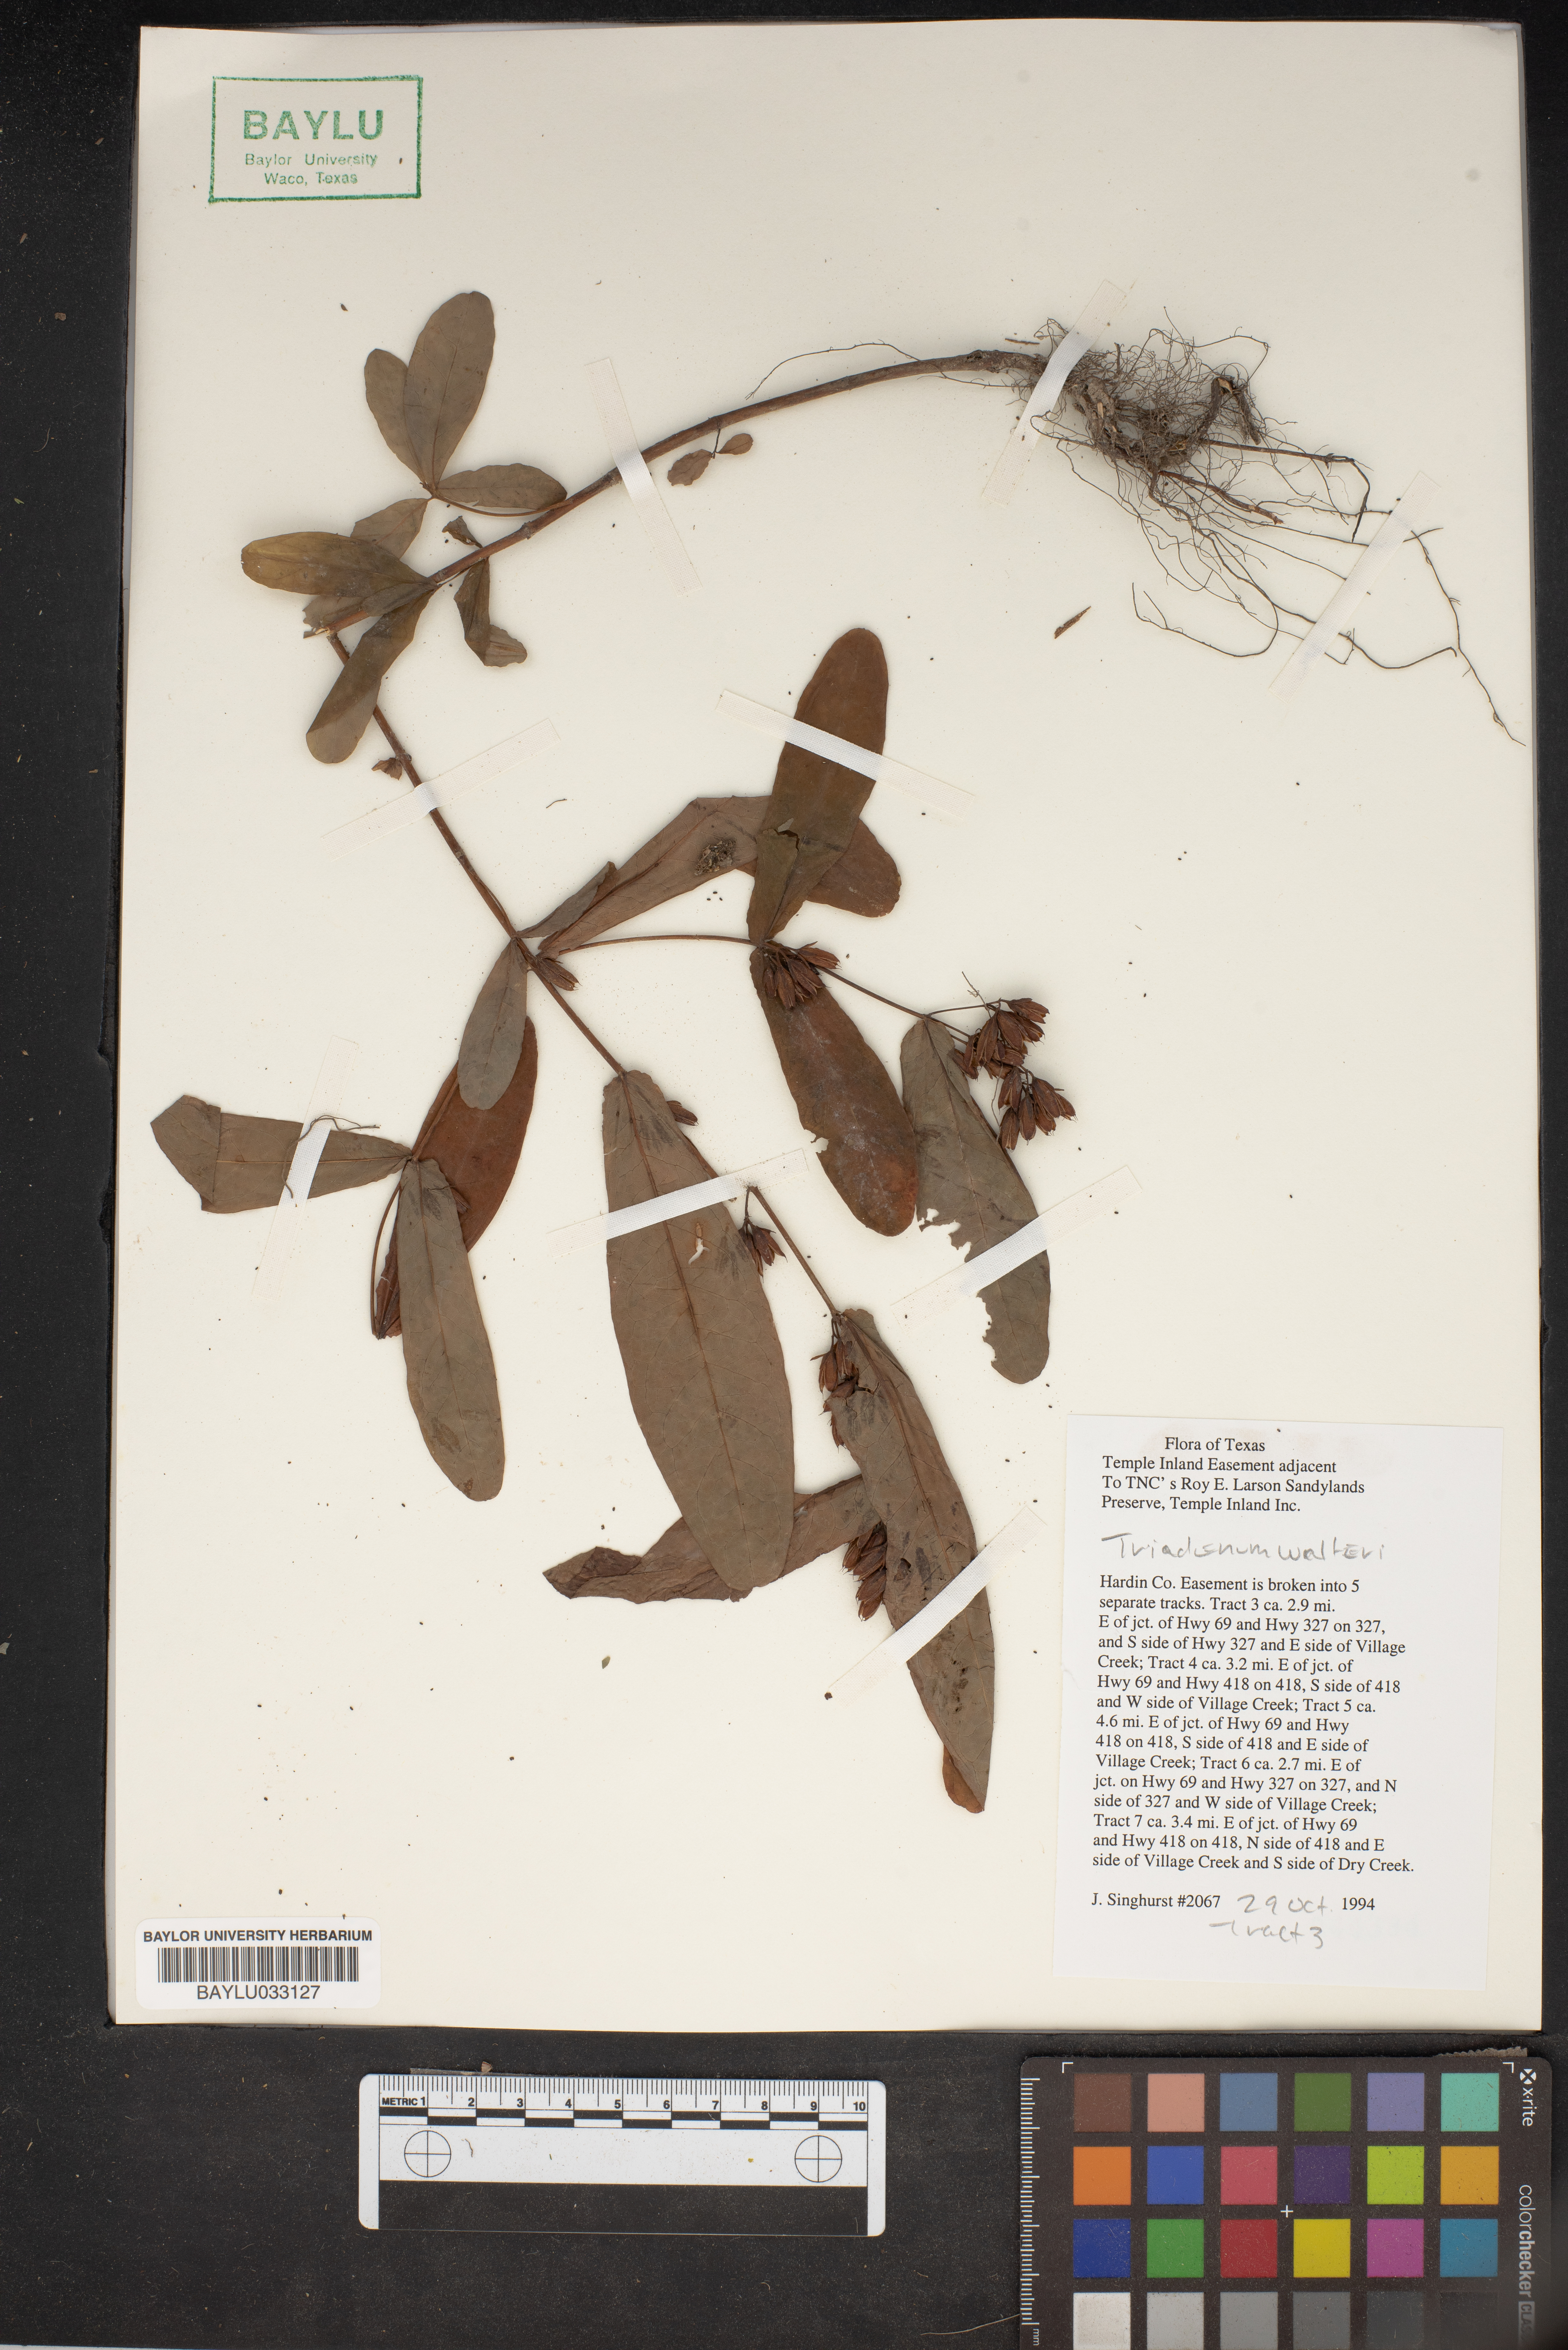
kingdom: Plantae
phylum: Tracheophyta
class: Magnoliopsida
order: Malpighiales
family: Hypericaceae
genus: Triadenum
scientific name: Triadenum walteri
